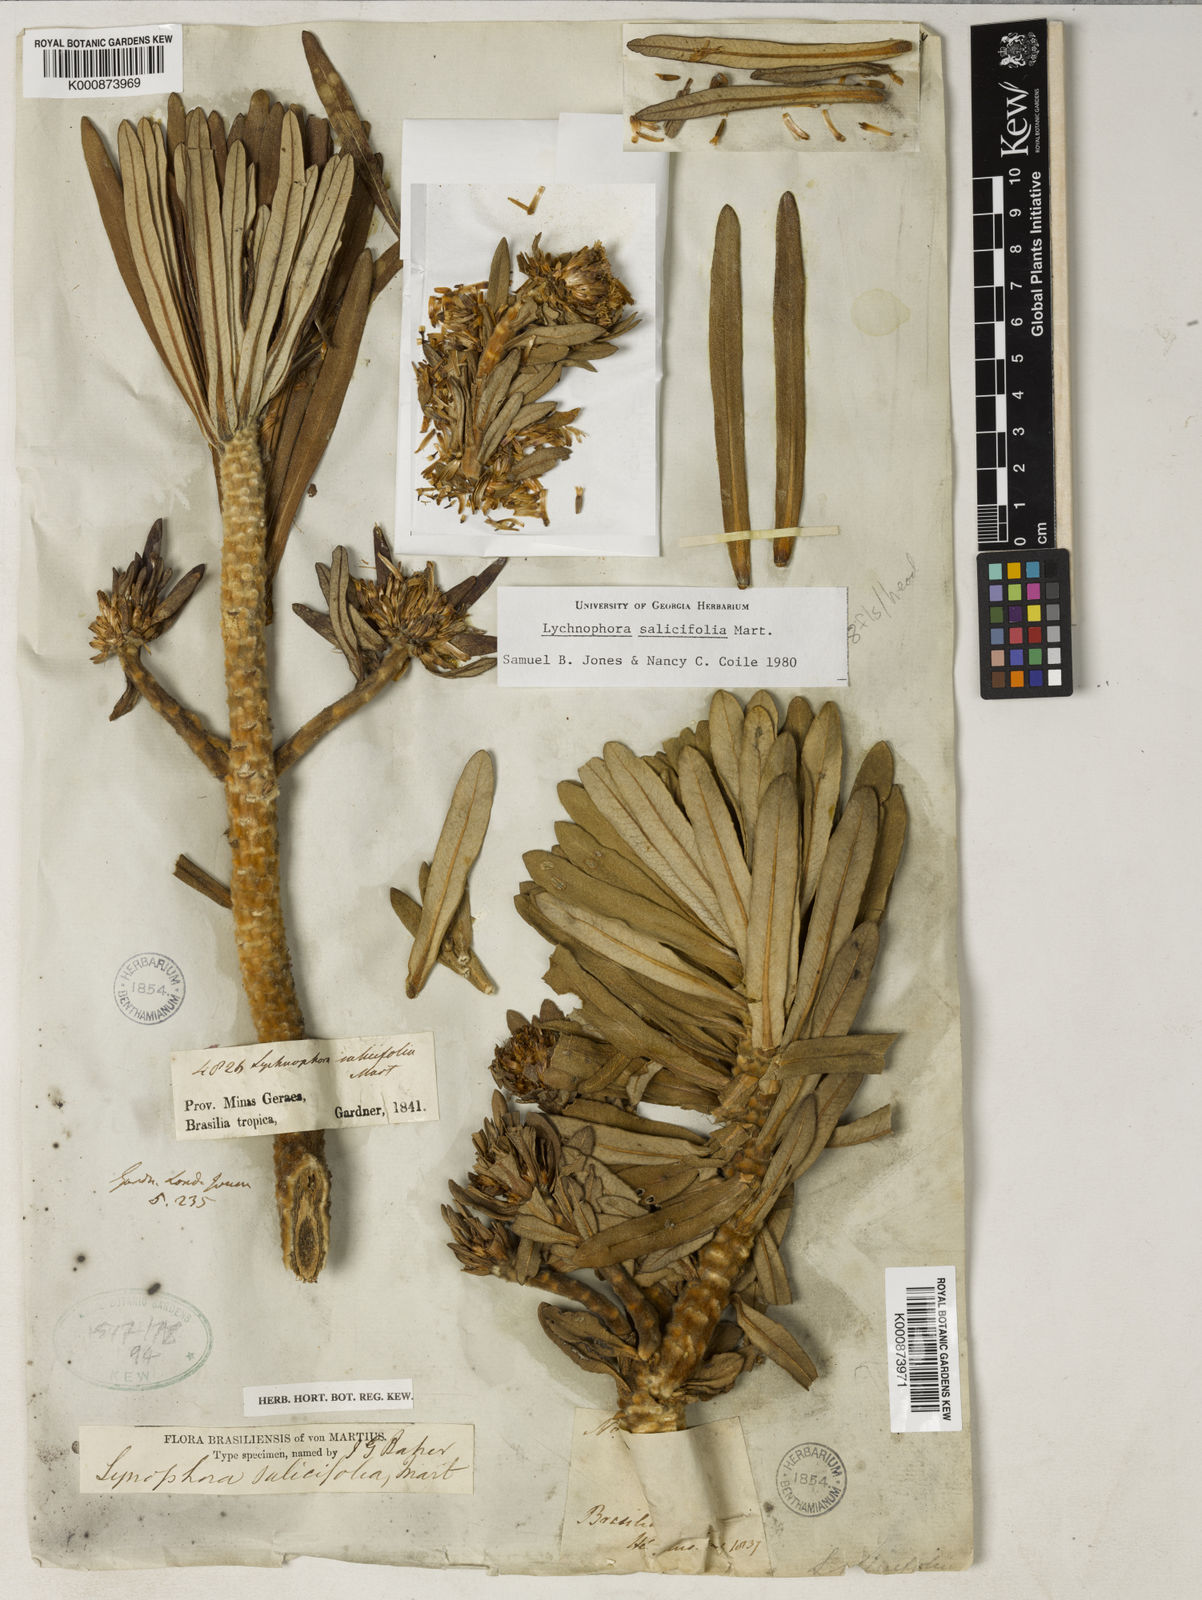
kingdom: Plantae
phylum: Tracheophyta
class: Magnoliopsida
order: Asterales
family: Asteraceae
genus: Lychnophora
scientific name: Lychnophora salicifolia
